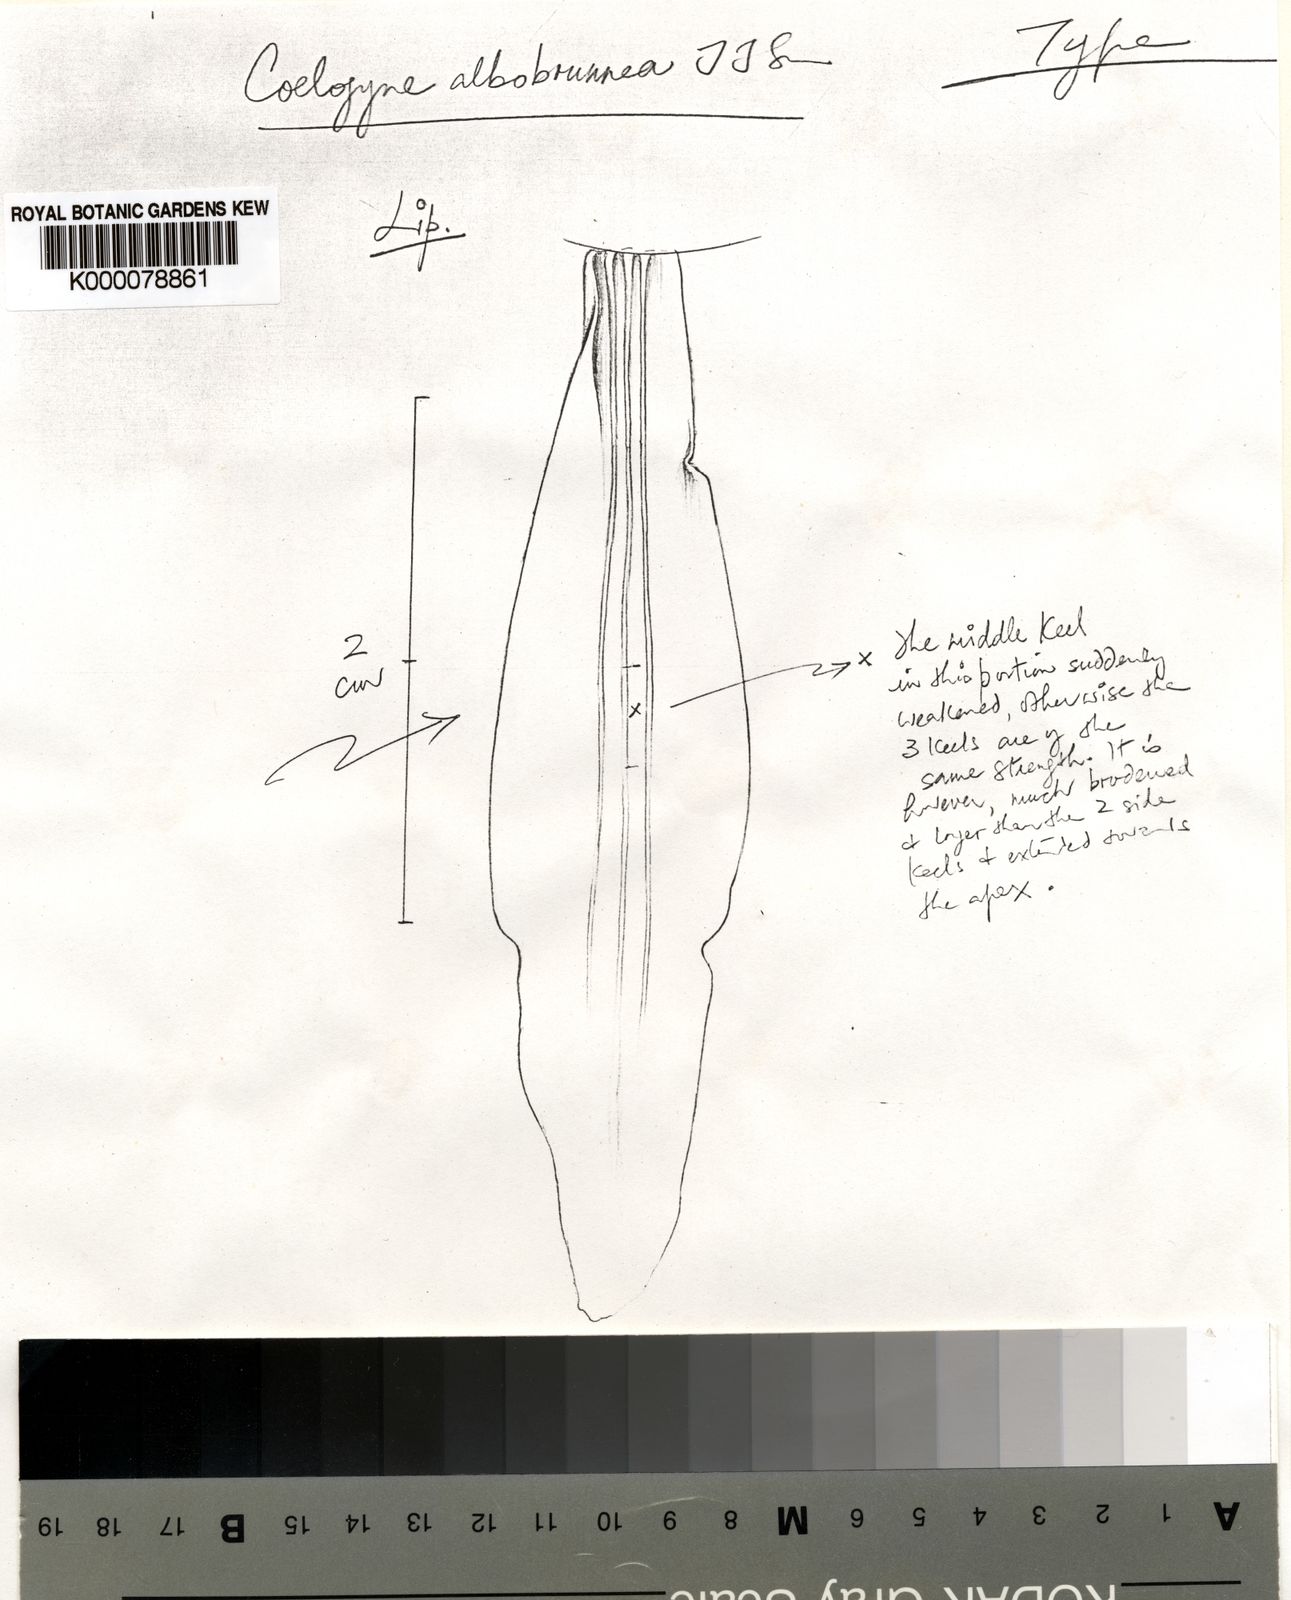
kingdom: Plantae
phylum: Tracheophyta
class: Liliopsida
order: Asparagales
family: Orchidaceae
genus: Coelogyne
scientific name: Coelogyne albobrunnea
